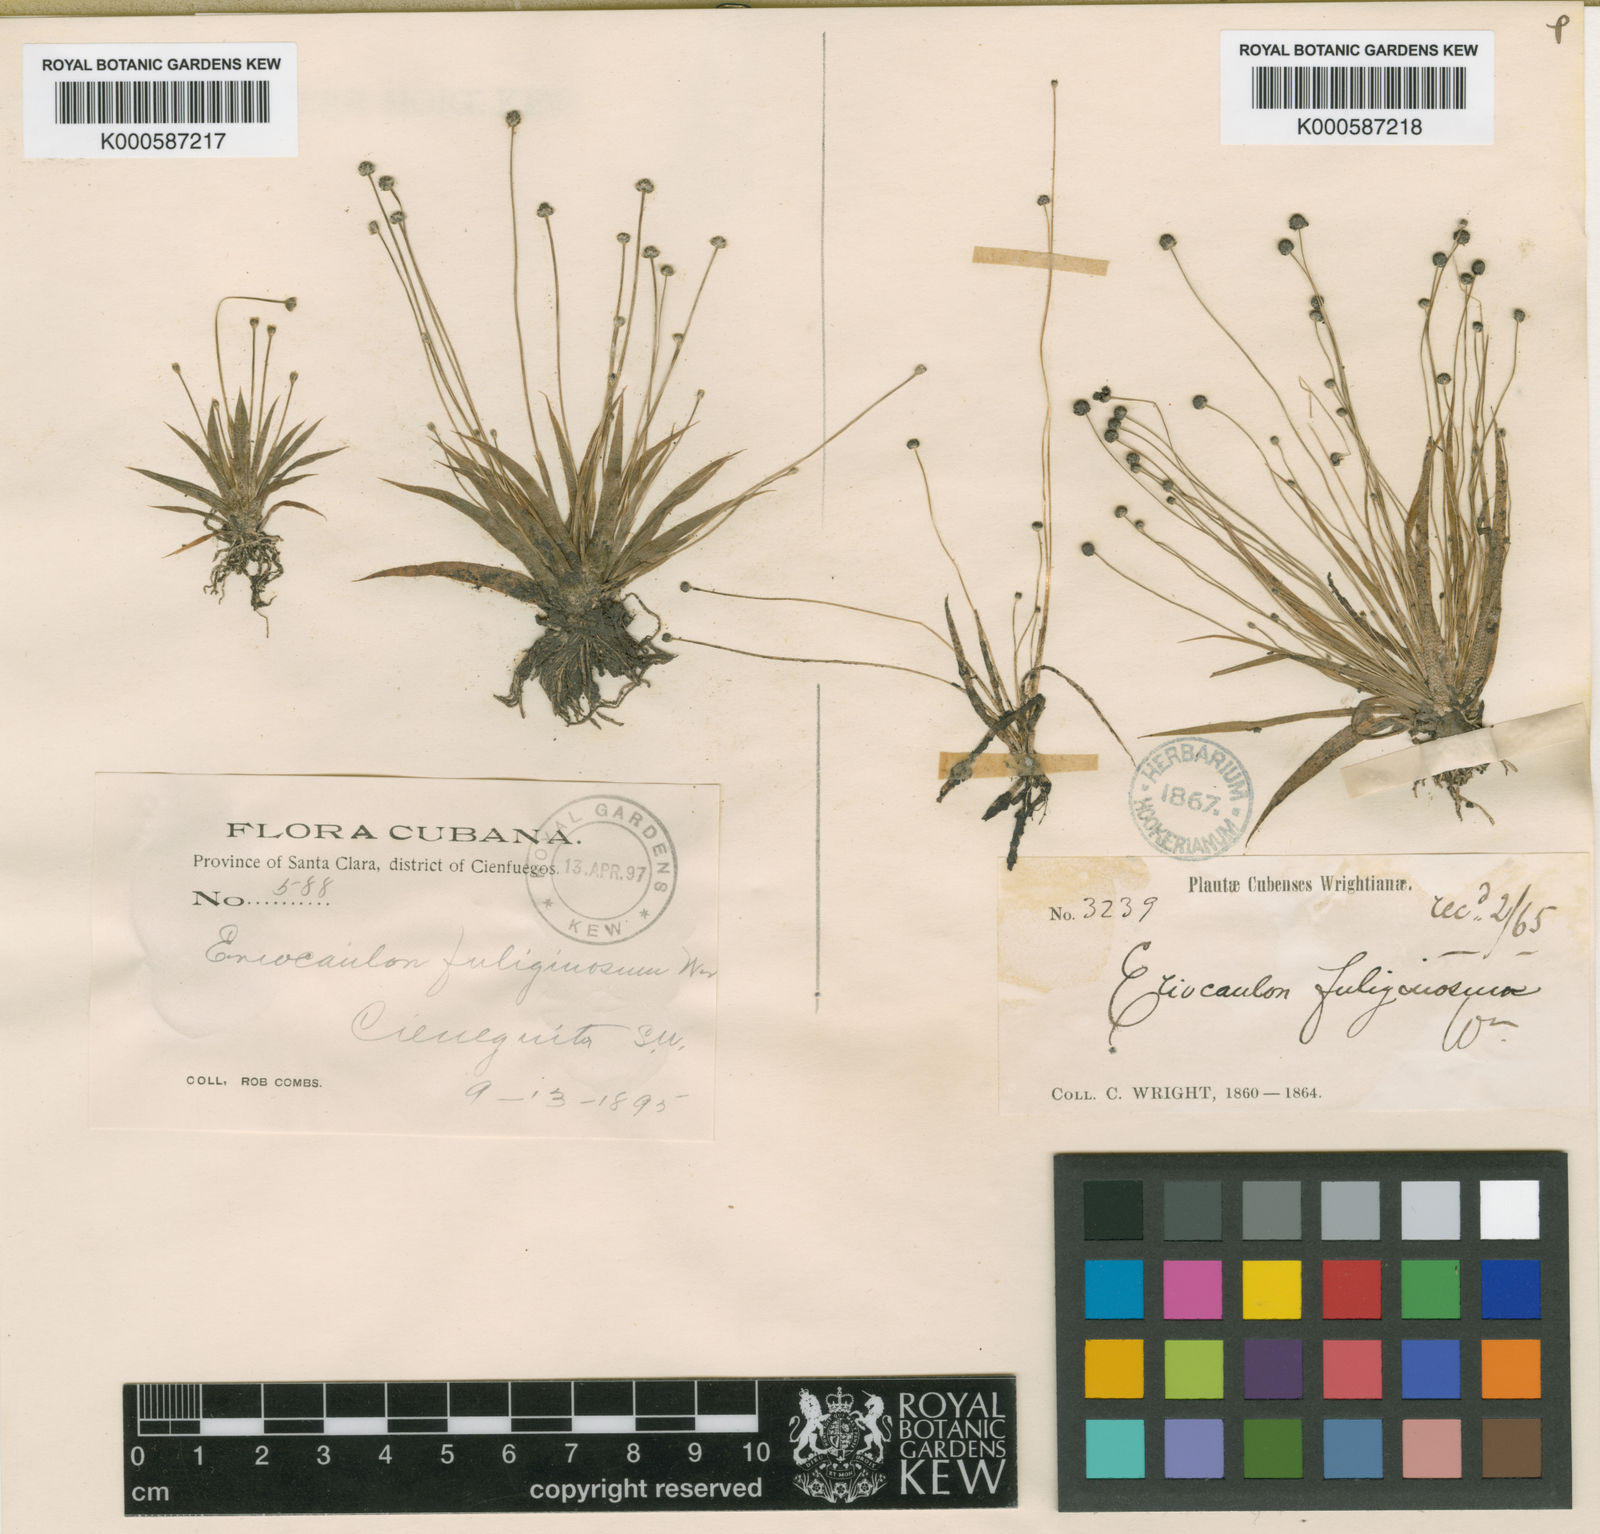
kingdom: Plantae
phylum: Tracheophyta
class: Liliopsida
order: Poales
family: Eriocaulaceae
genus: Eriocaulon
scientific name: Eriocaulon
